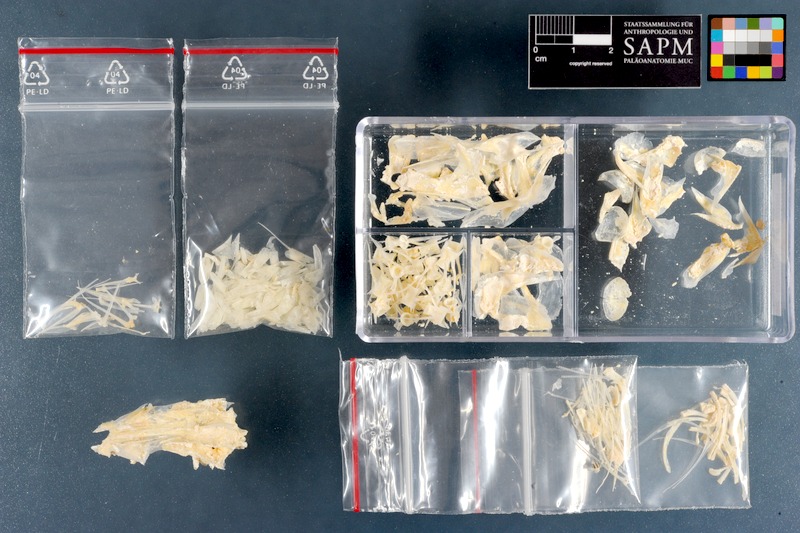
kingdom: Animalia
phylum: Chordata
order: Perciformes
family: Mullidae
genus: Upeneus
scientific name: Upeneus tragula
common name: Freckled goatfish
